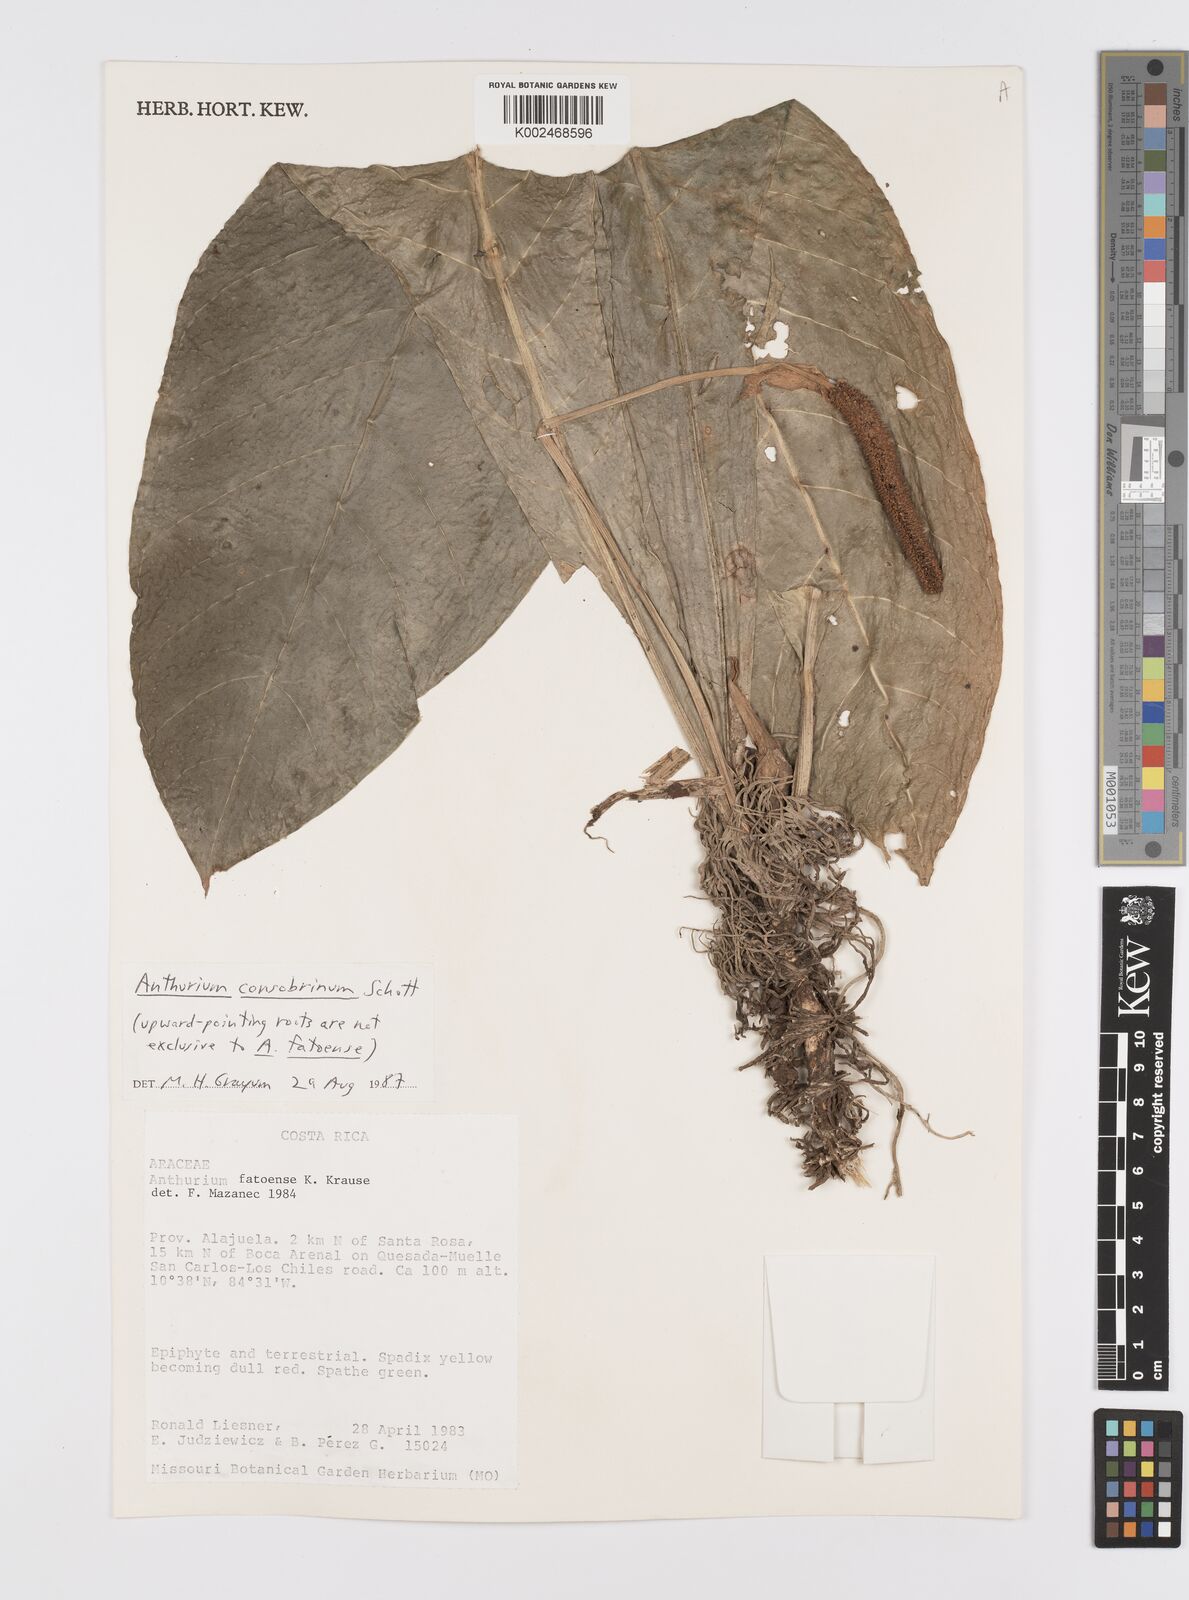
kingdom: Plantae
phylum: Tracheophyta
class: Liliopsida
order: Alismatales
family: Araceae
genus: Anthurium
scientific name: Anthurium consobrinum
